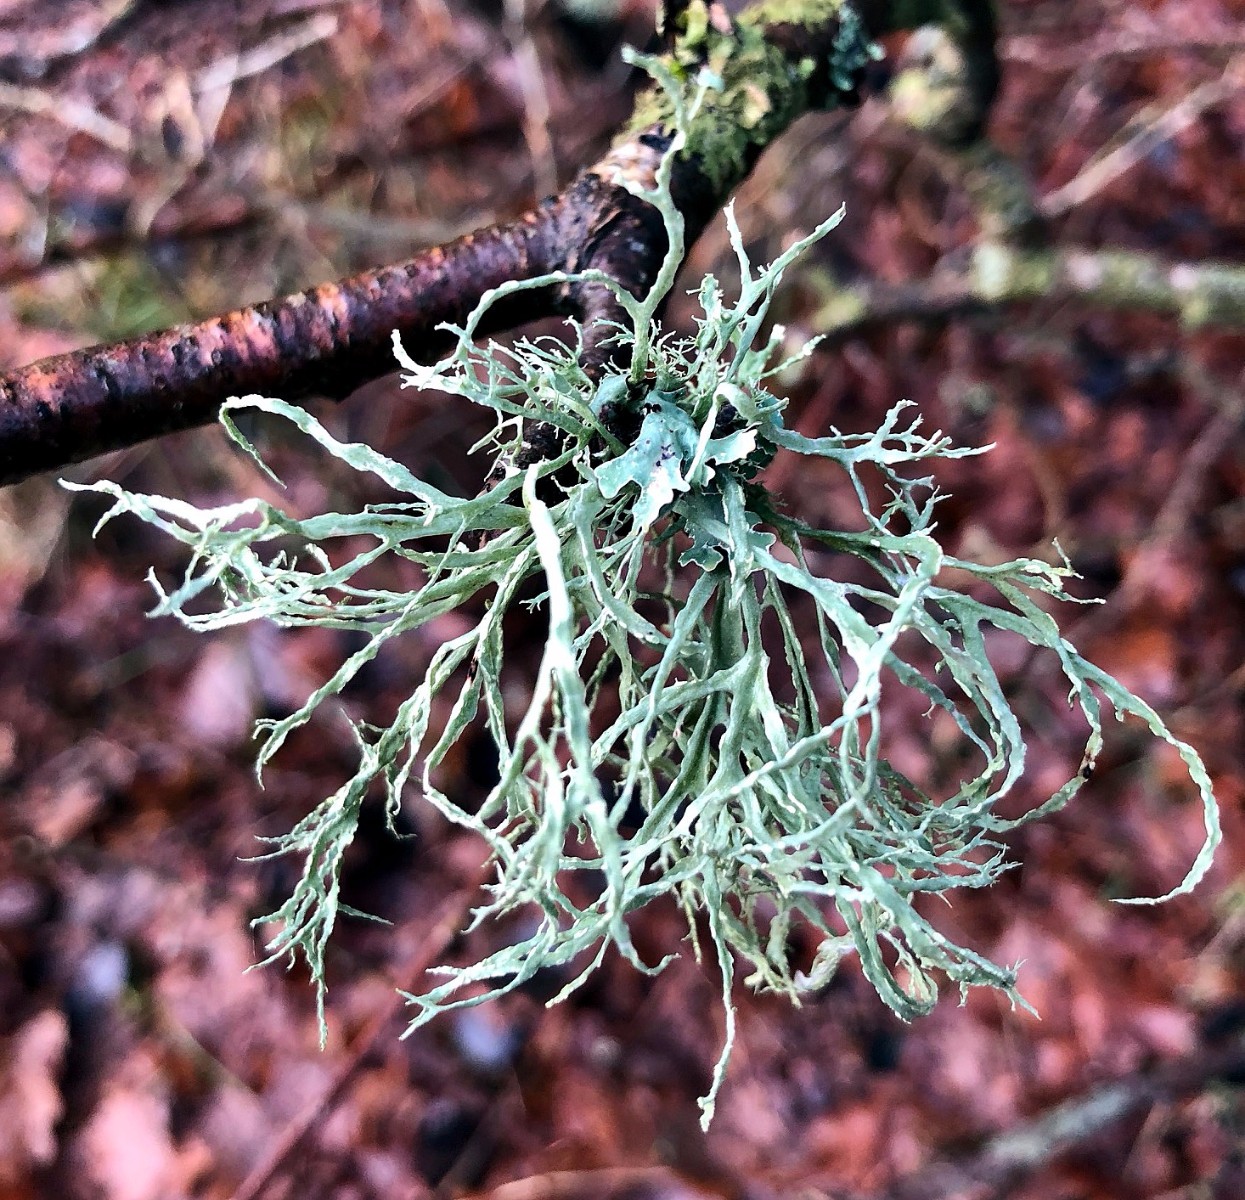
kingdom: Fungi
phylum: Ascomycota
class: Lecanoromycetes
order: Lecanorales
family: Ramalinaceae
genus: Ramalina
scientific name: Ramalina farinacea
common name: melet grenlav
